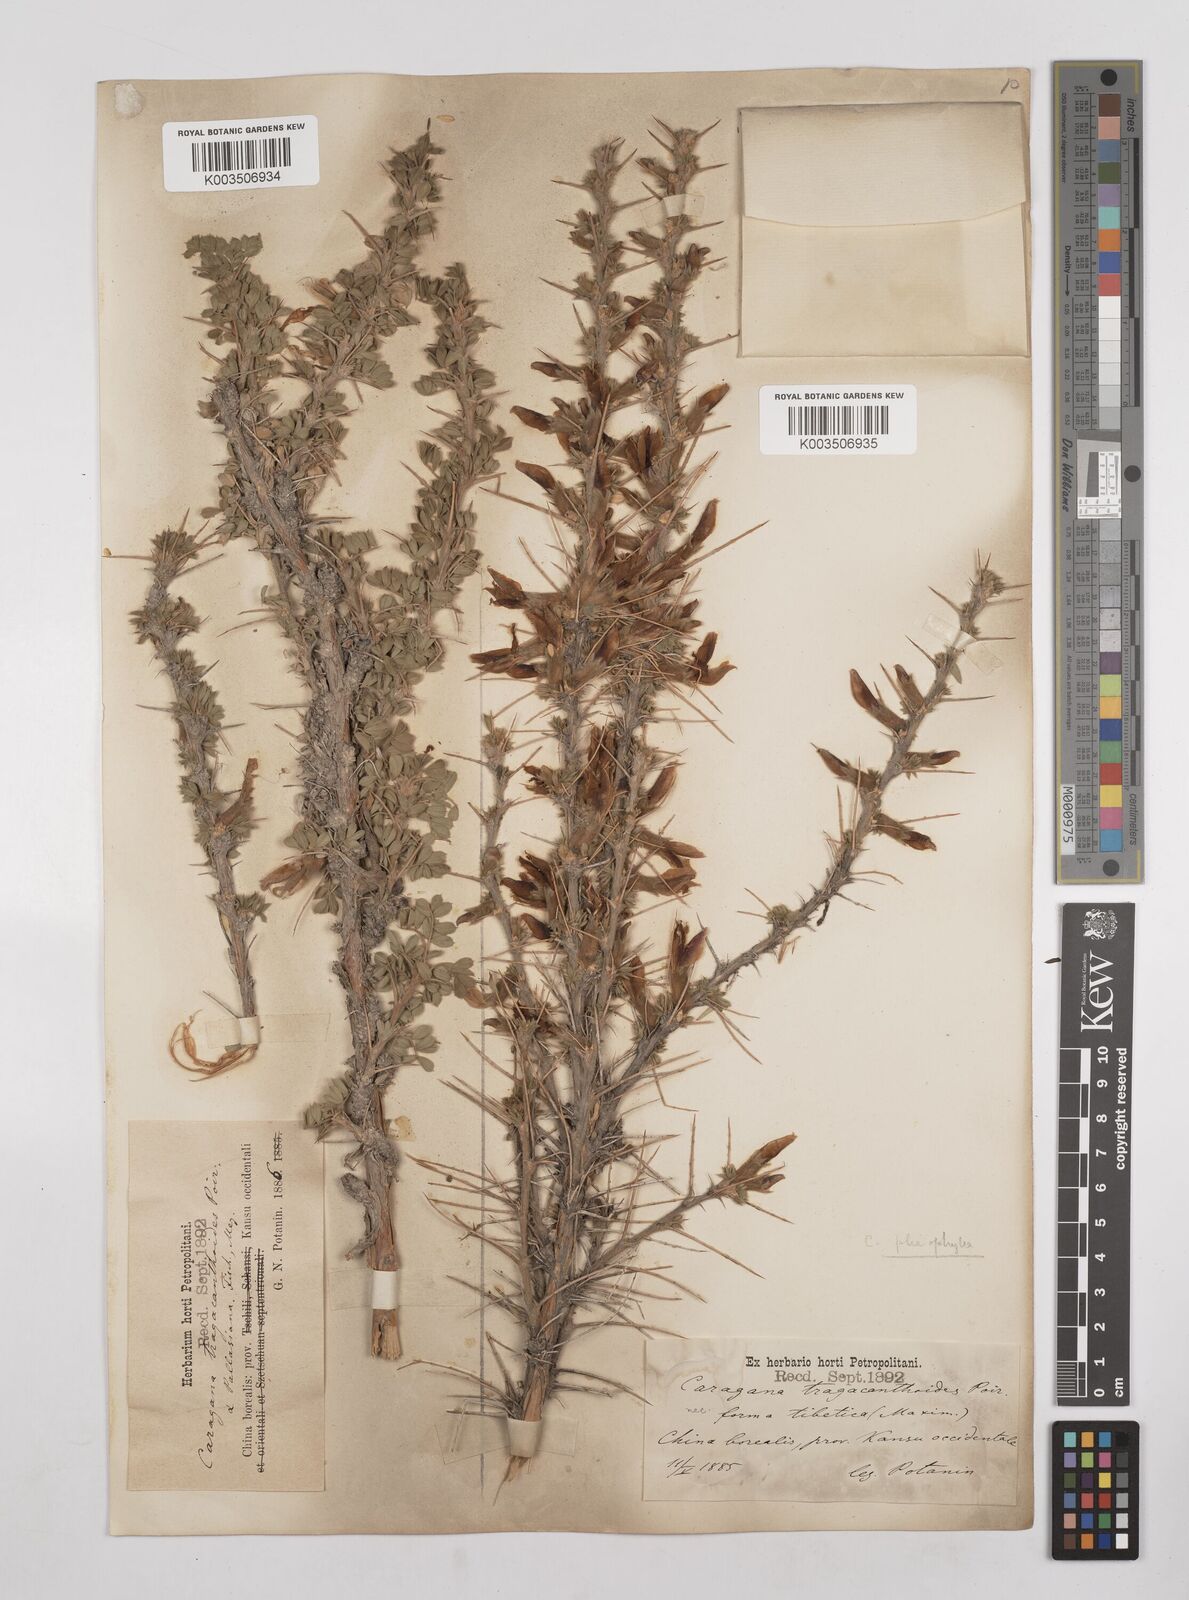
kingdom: Plantae
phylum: Tracheophyta
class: Magnoliopsida
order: Fabales
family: Fabaceae
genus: Caragana
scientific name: Caragana tragacanthoides
